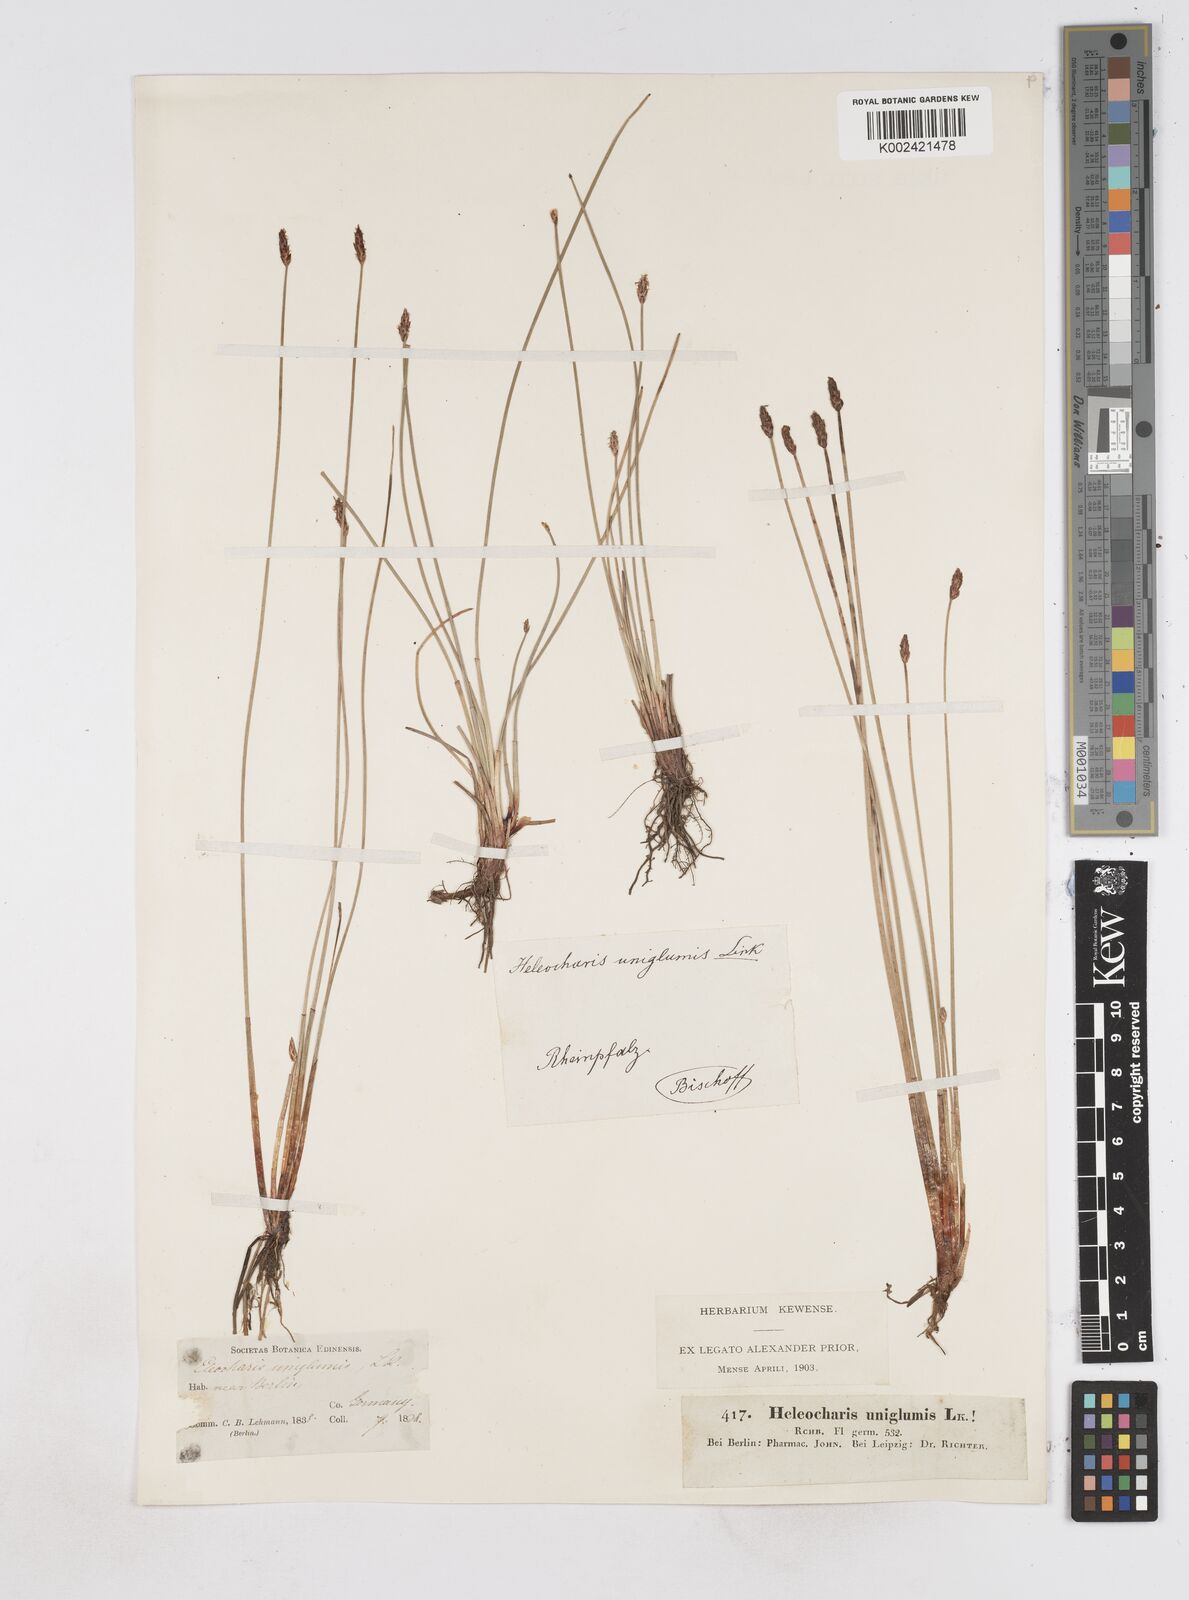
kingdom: Plantae
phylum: Tracheophyta
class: Liliopsida
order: Poales
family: Cyperaceae
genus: Eleocharis
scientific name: Eleocharis uniglumis
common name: Slender spike-rush
